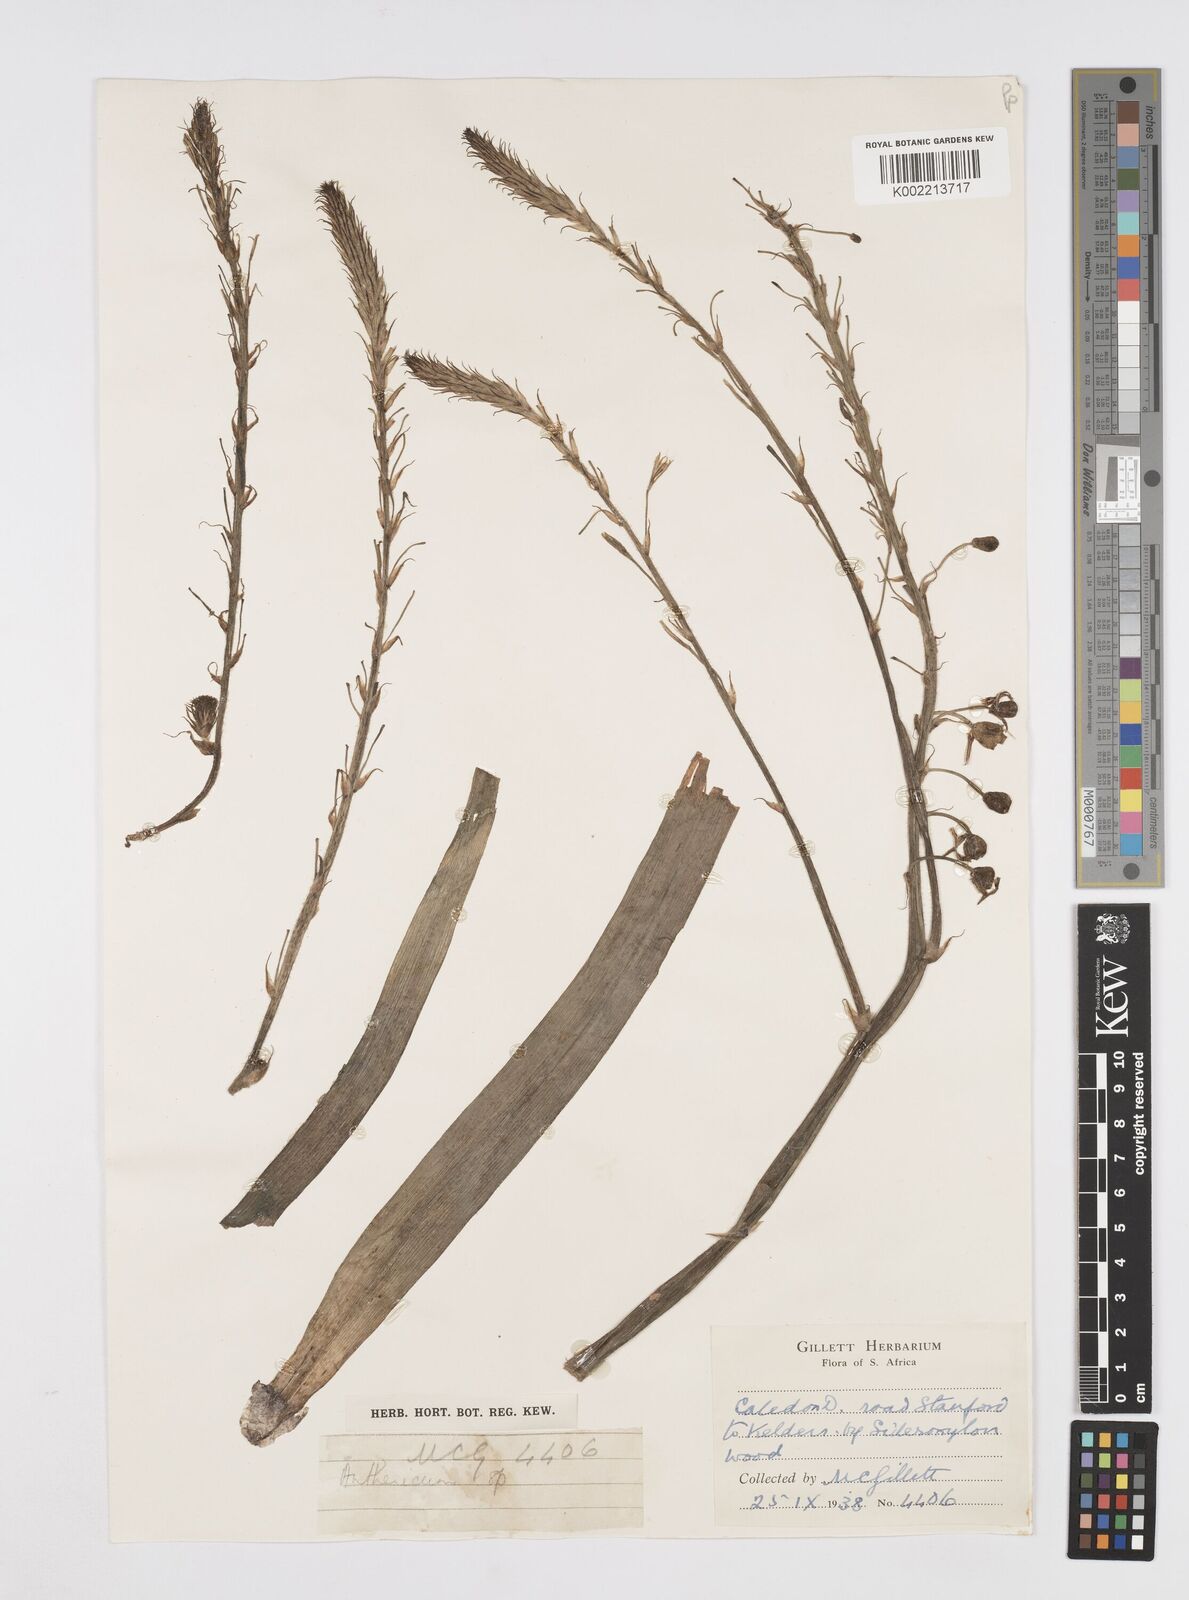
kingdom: Plantae
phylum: Tracheophyta
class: Liliopsida
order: Asparagales
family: Asphodelaceae
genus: Trachyandra
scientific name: Trachyandra ciliata
